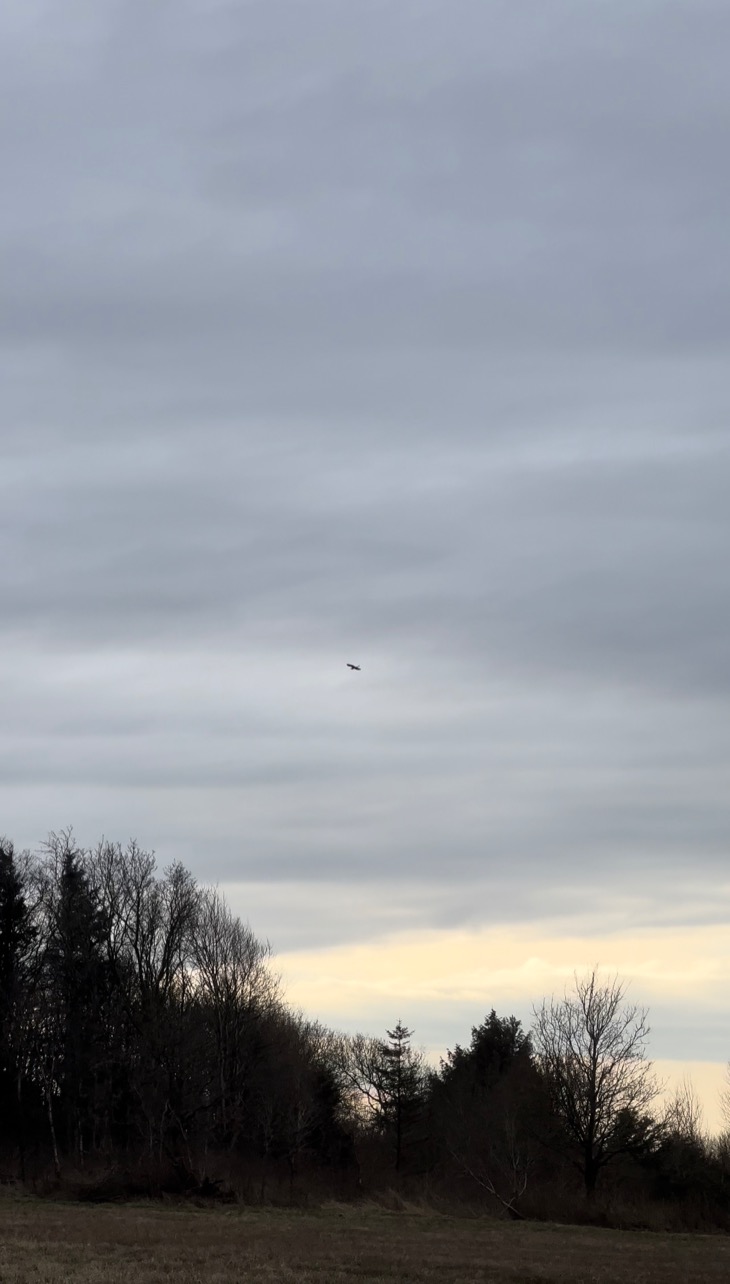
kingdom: Animalia
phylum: Chordata
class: Aves
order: Pelecaniformes
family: Ardeidae
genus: Ardea
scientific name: Ardea alba
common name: Sølvhejre
